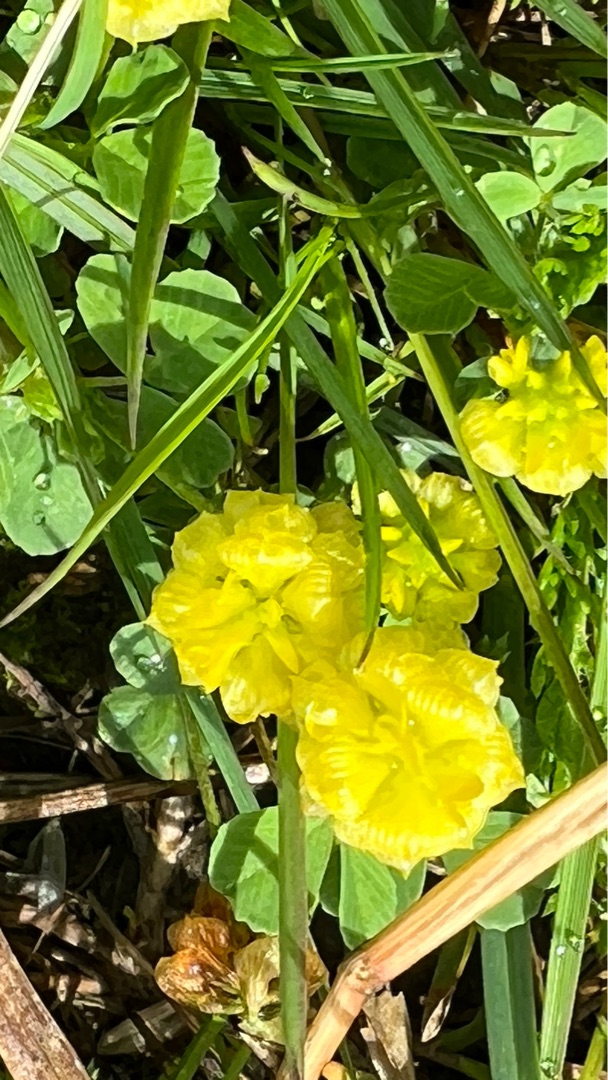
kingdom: Plantae
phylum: Tracheophyta
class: Magnoliopsida
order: Fabales
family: Fabaceae
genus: Trifolium
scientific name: Trifolium campestre
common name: Gul kløver
